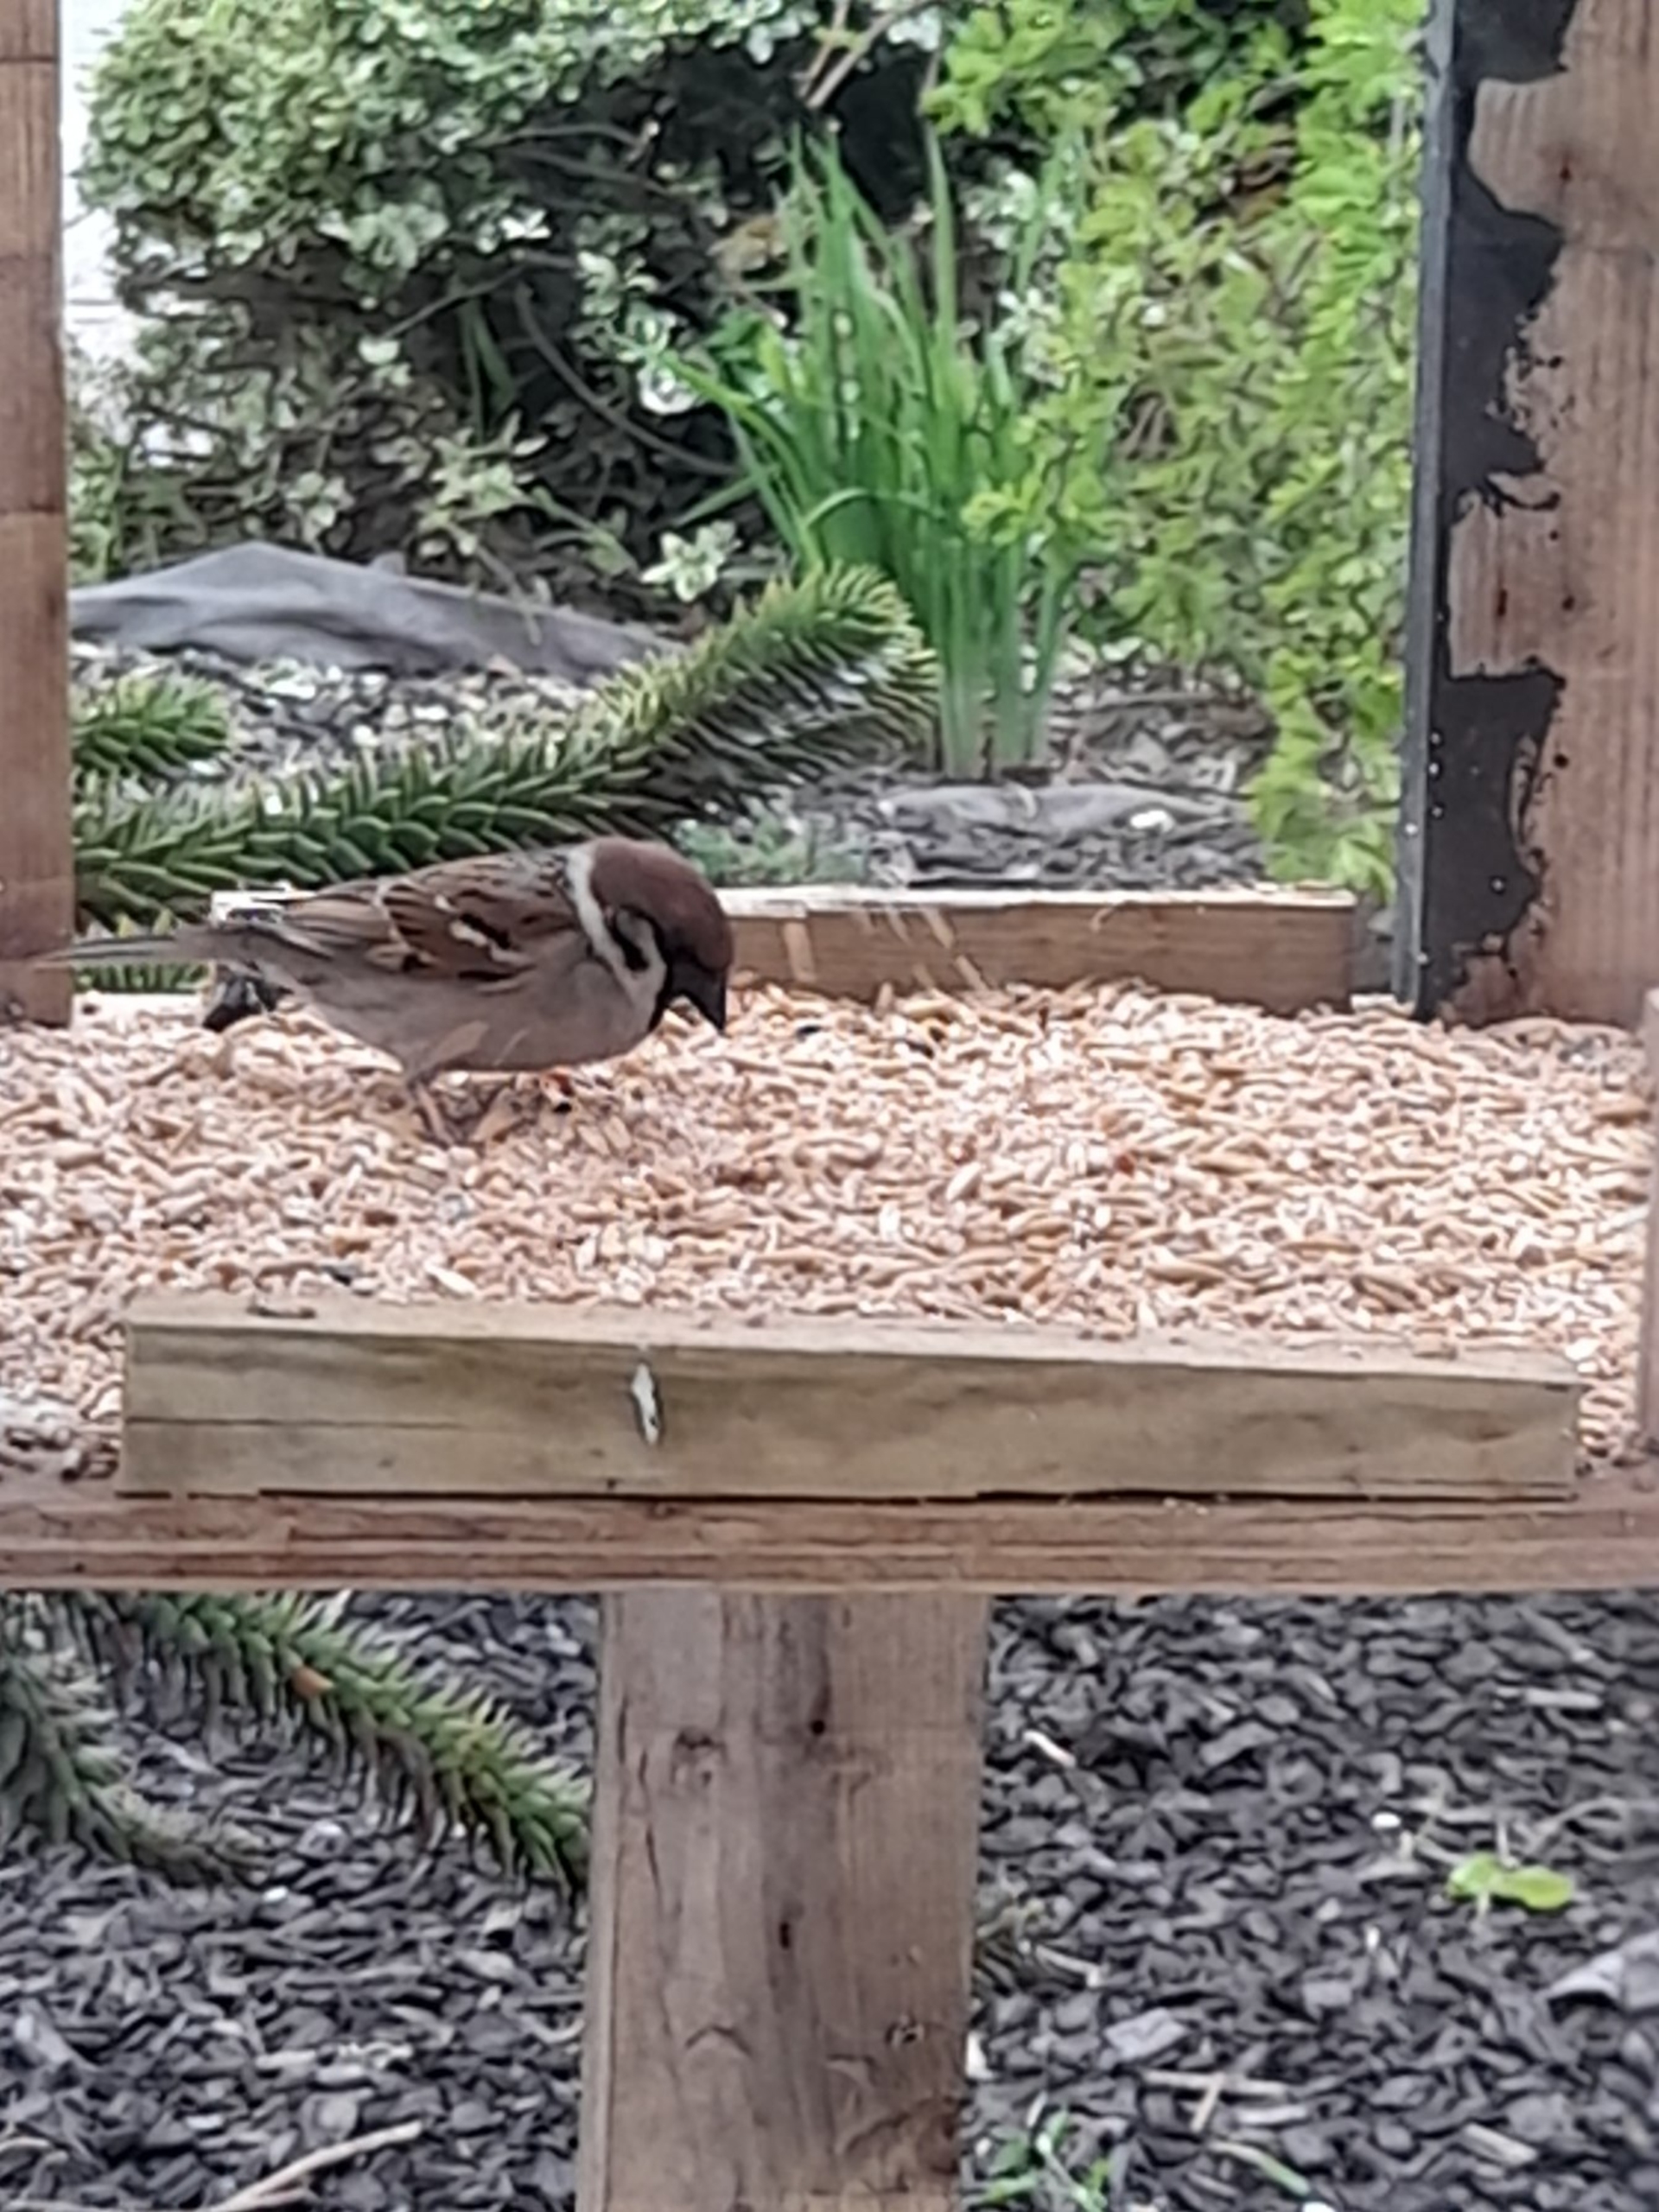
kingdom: Animalia
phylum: Chordata
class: Aves
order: Passeriformes
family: Passeridae
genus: Passer
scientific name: Passer montanus
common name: Skovspurv
